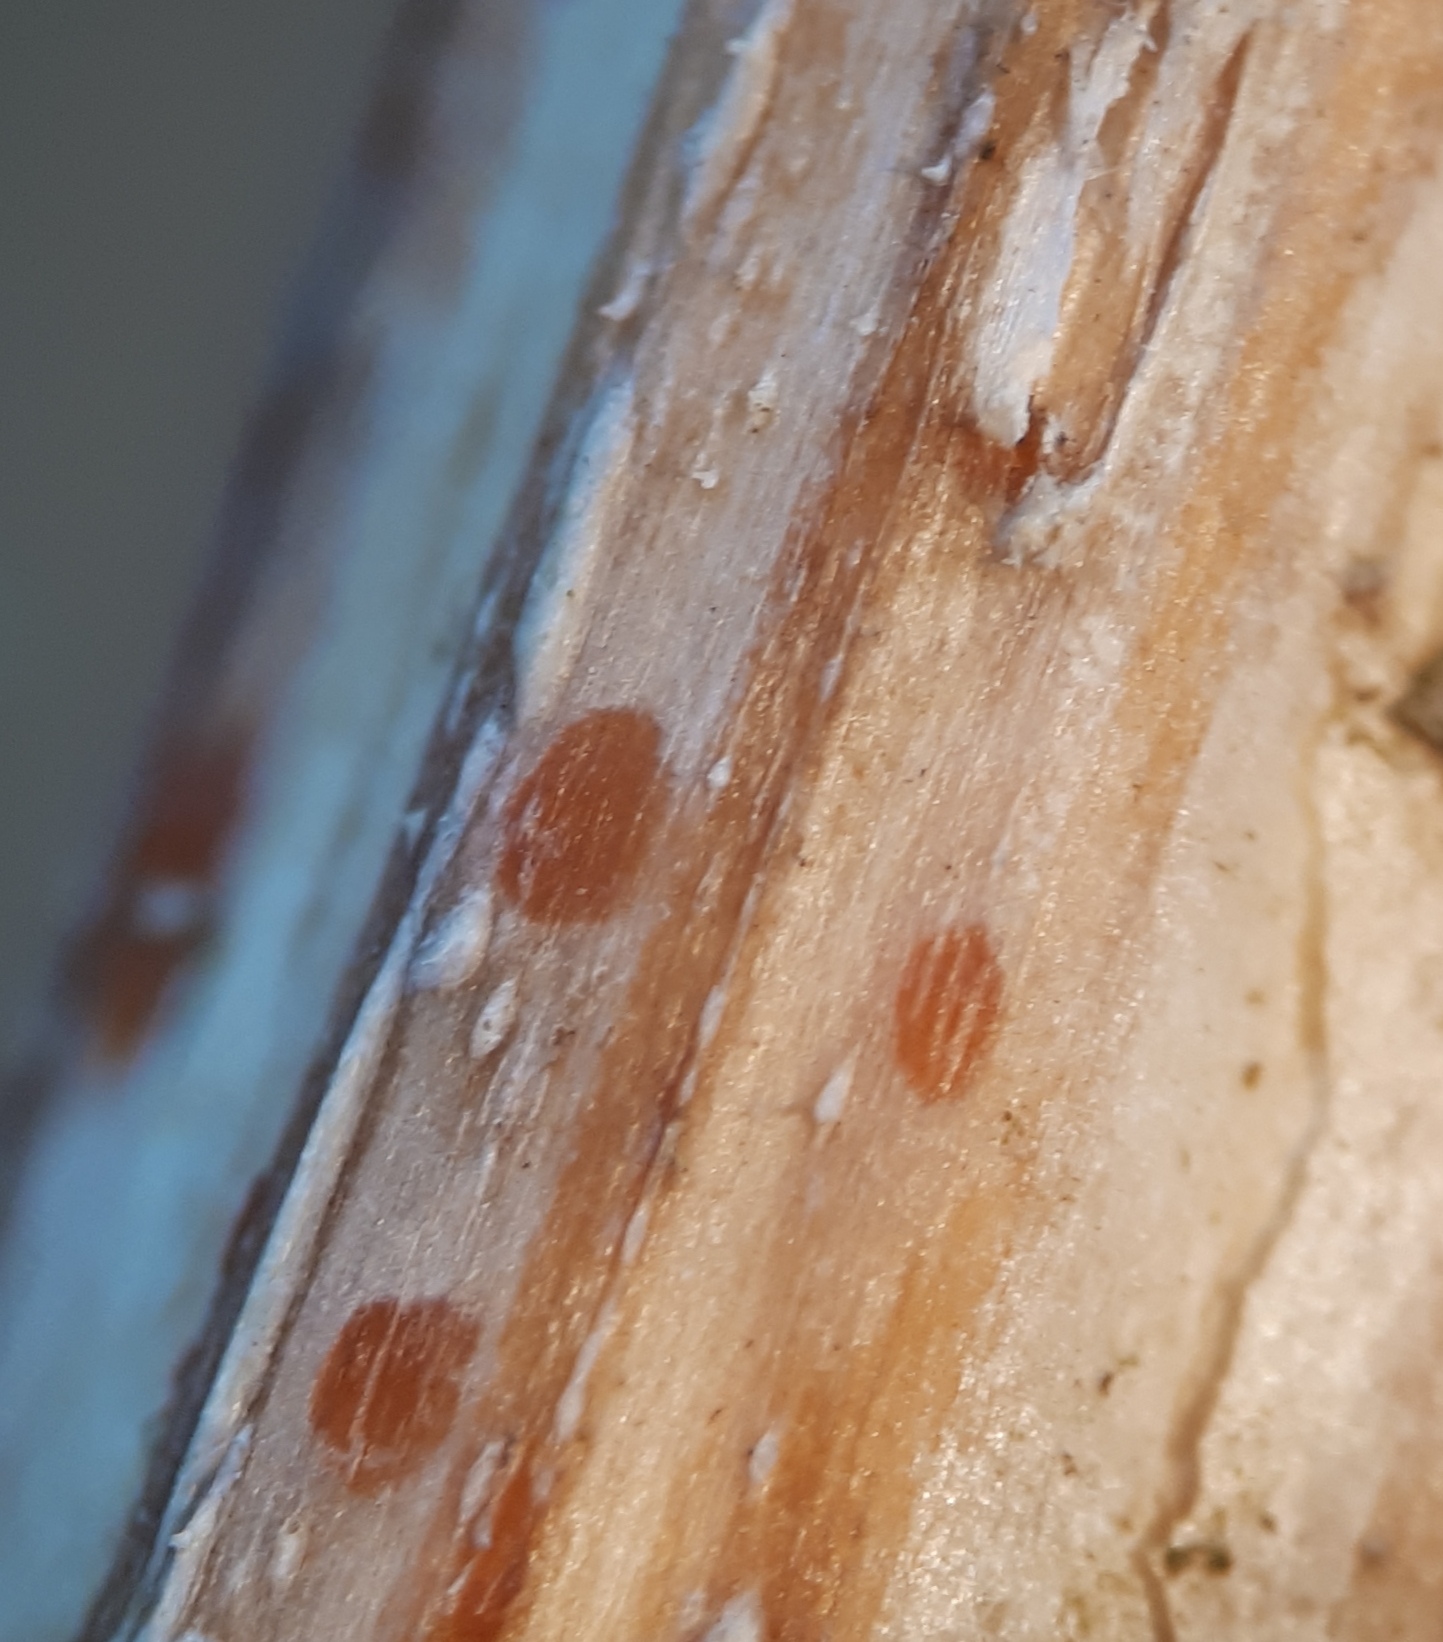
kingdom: Fungi
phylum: Ascomycota
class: Leotiomycetes
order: Helotiales
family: Calloriaceae
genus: Calloria
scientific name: Calloria urticae
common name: nælde-orangeskive
